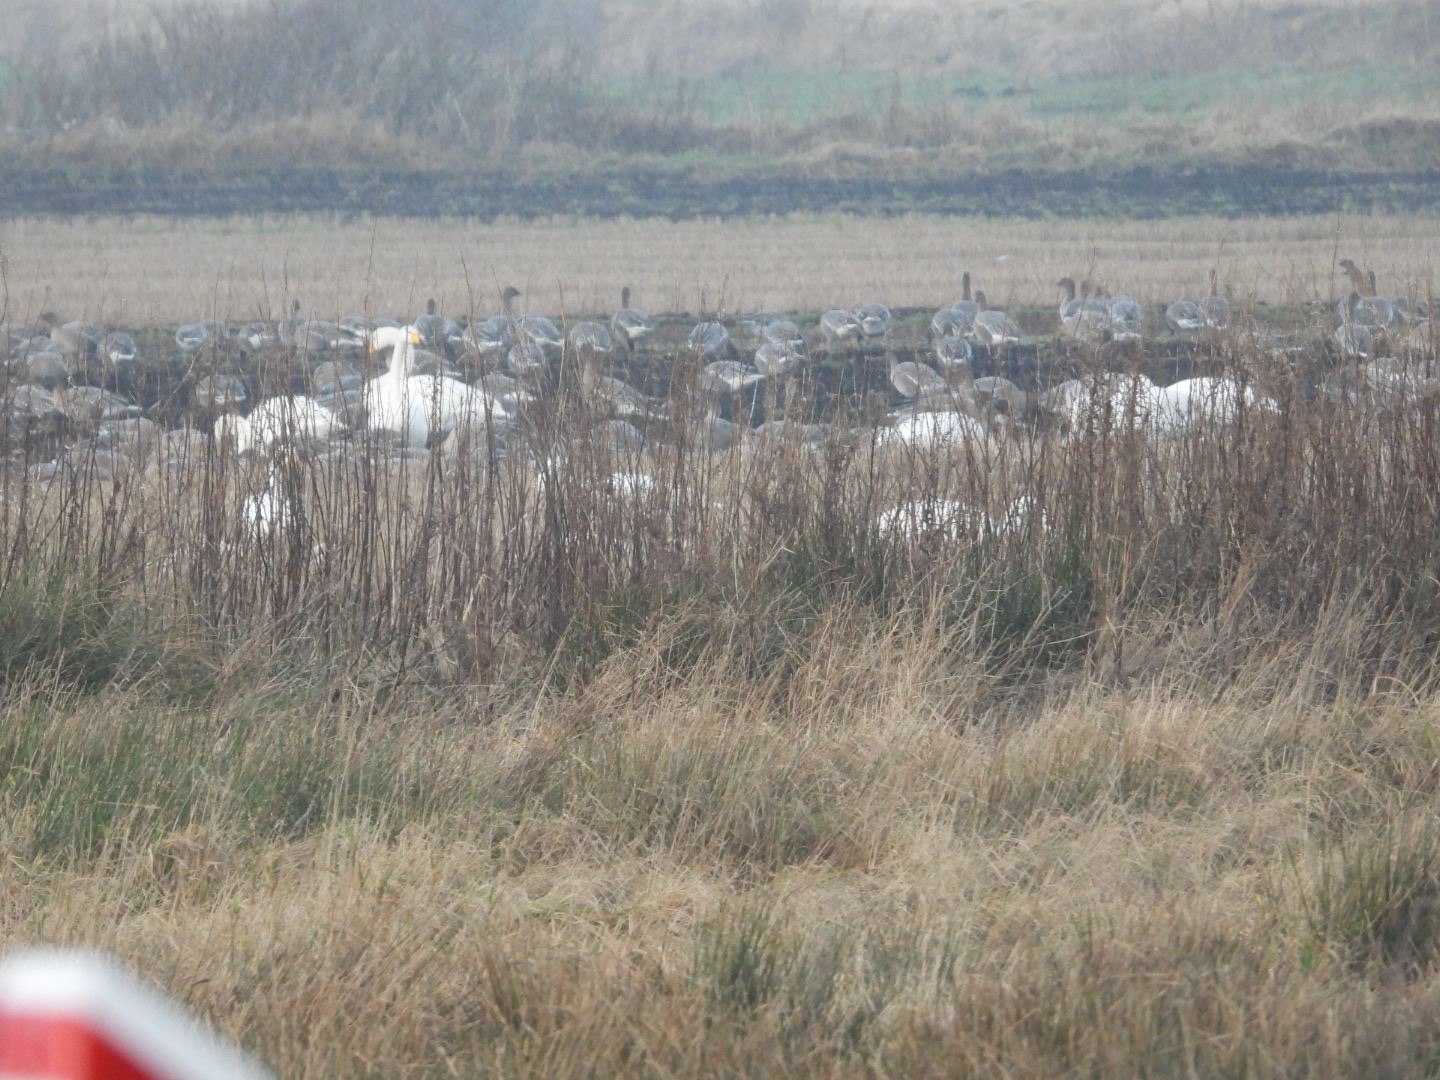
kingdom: Animalia
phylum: Chordata
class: Aves
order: Anseriformes
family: Anatidae
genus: Anser
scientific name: Anser brachyrhynchus
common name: Kortnæbbet gås
